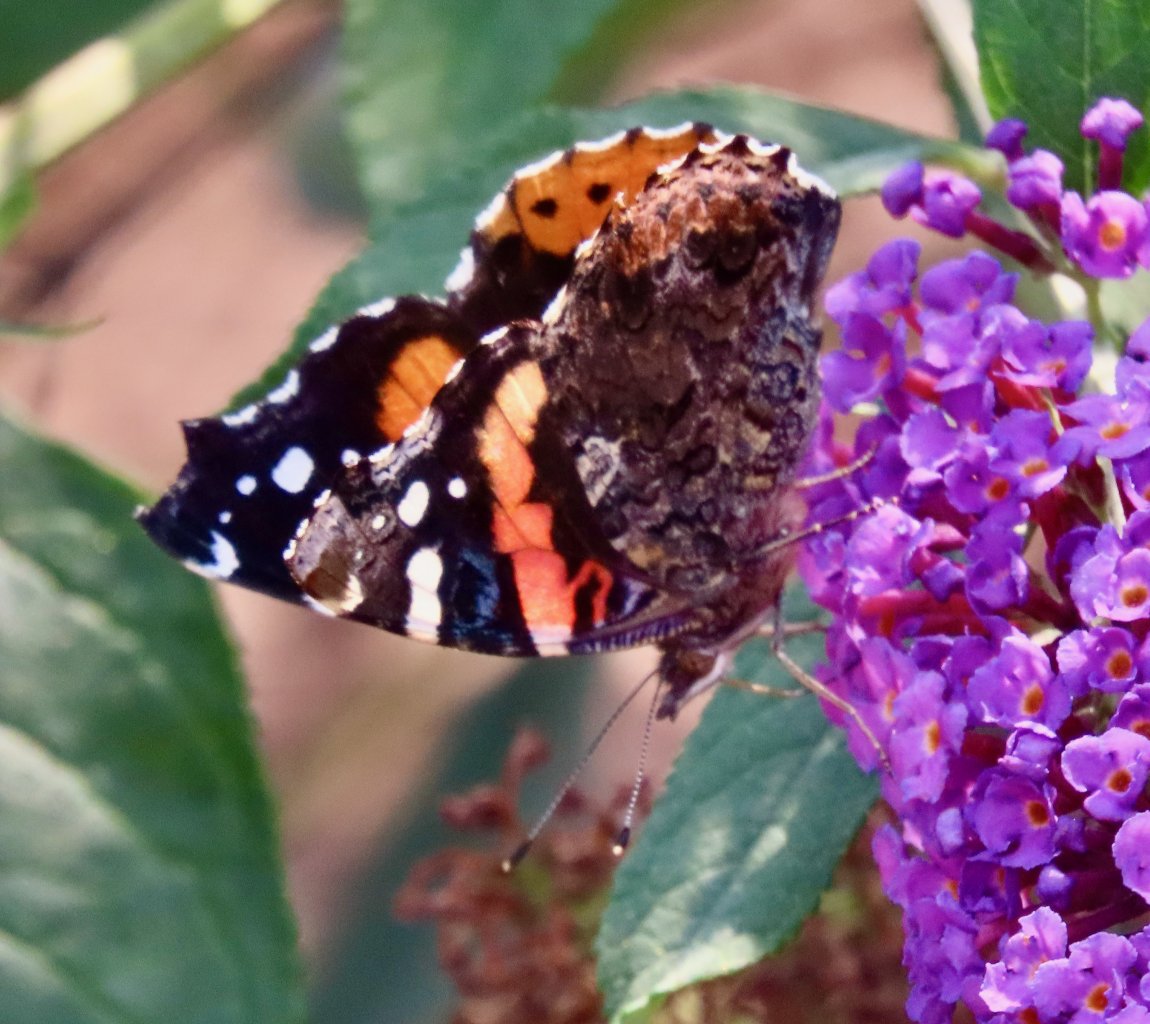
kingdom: Animalia
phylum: Arthropoda
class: Insecta
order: Lepidoptera
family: Nymphalidae
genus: Vanessa
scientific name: Vanessa atalanta
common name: Red Admiral
